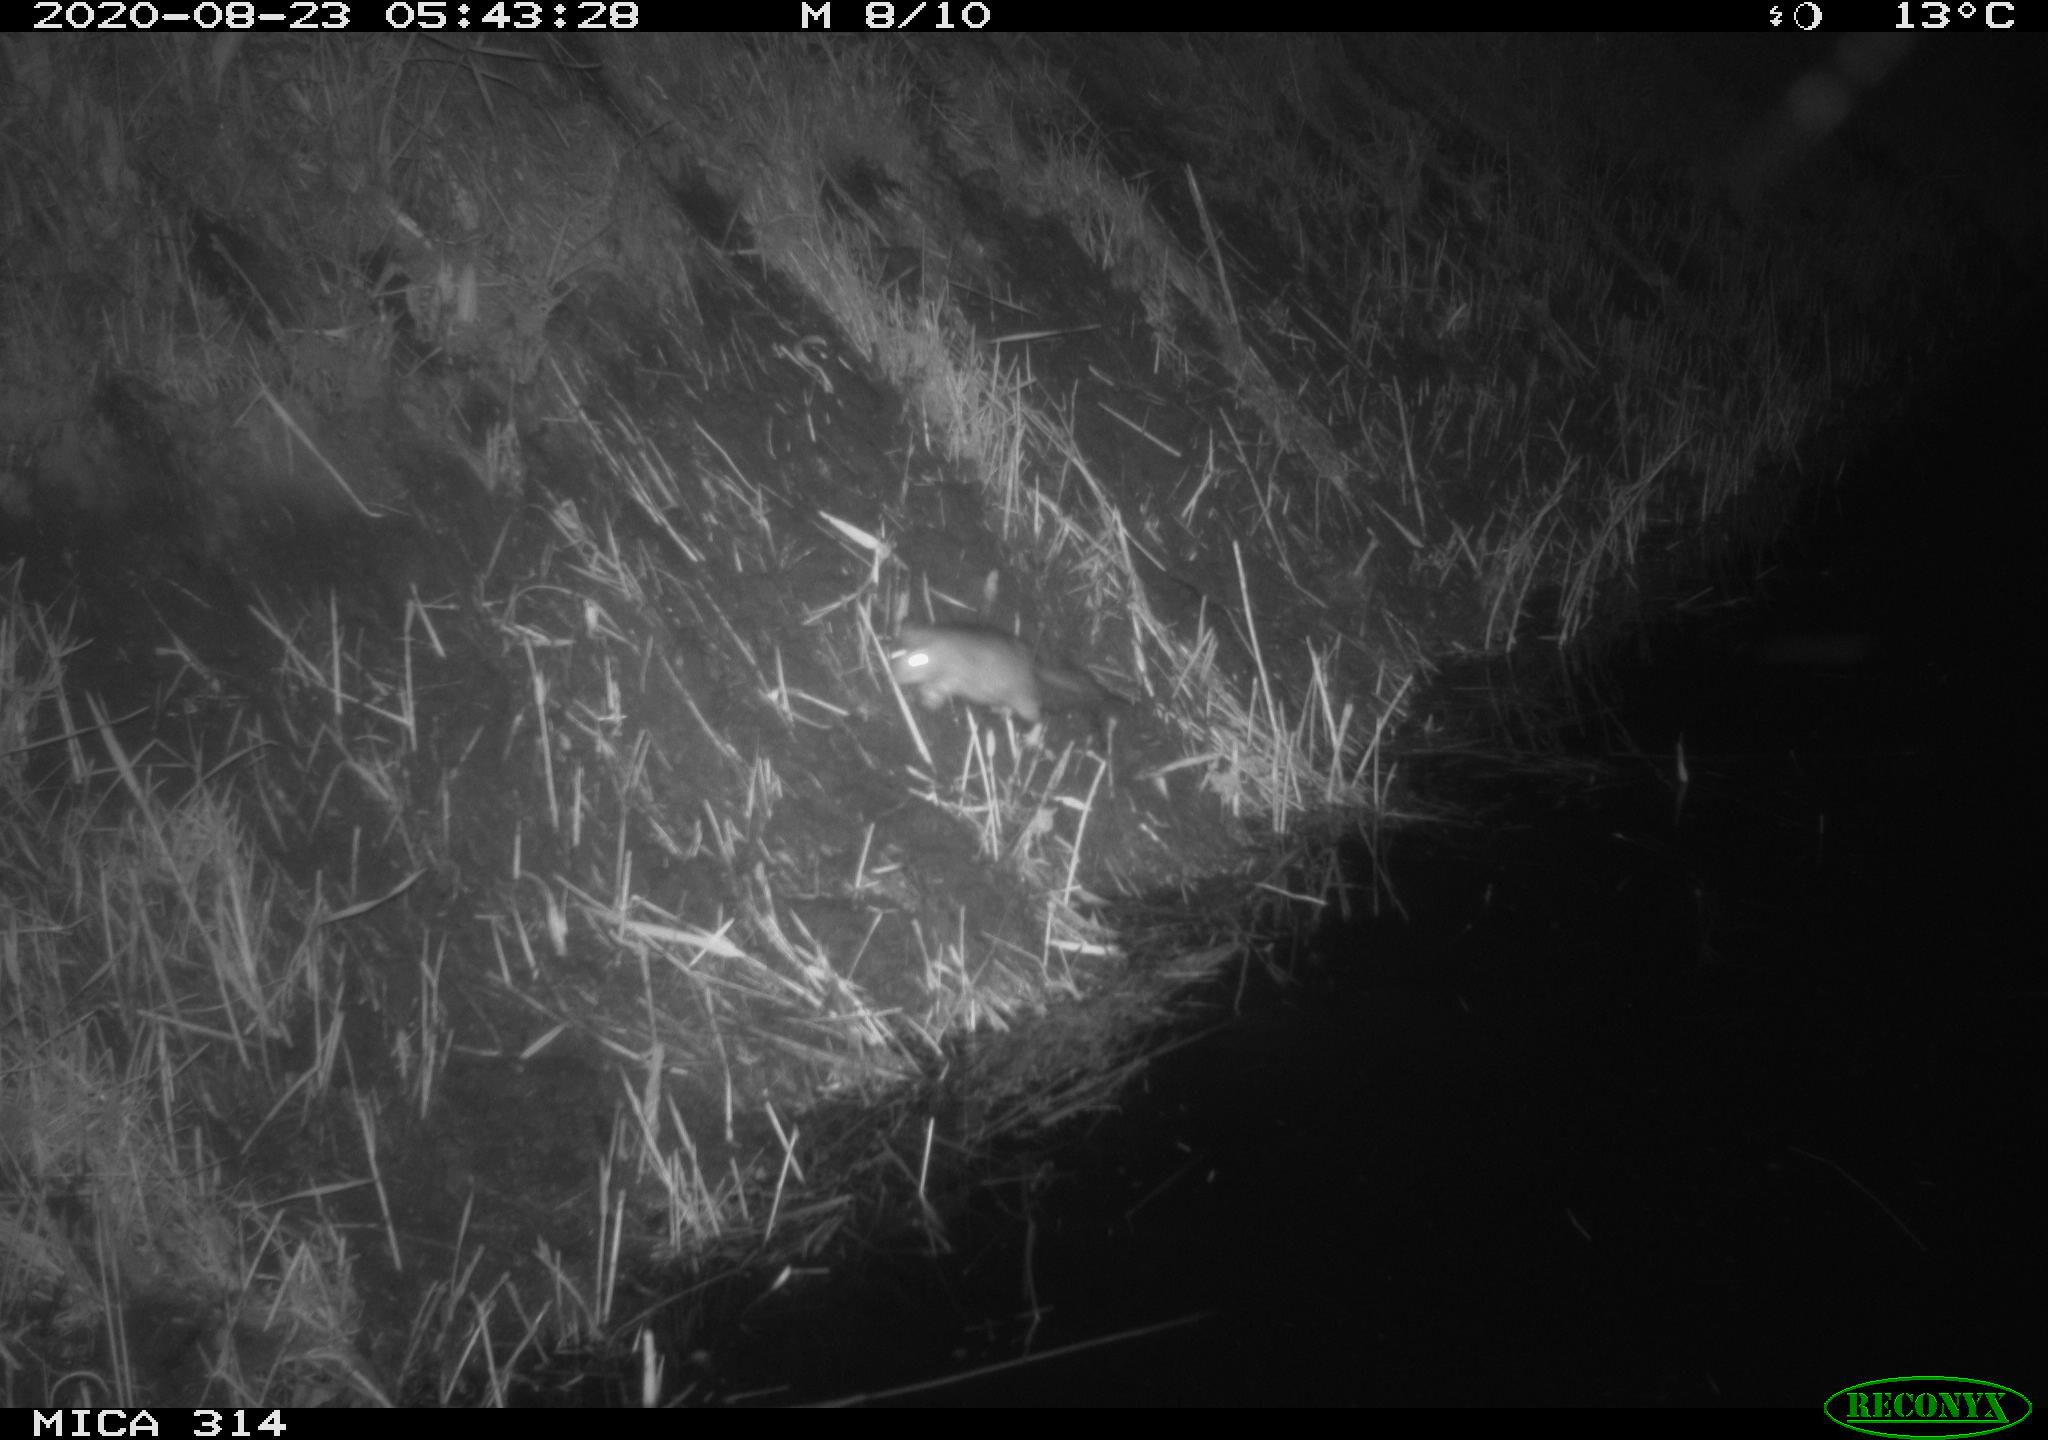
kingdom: Animalia
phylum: Chordata
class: Mammalia
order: Rodentia
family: Muridae
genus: Rattus
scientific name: Rattus norvegicus
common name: Brown rat
